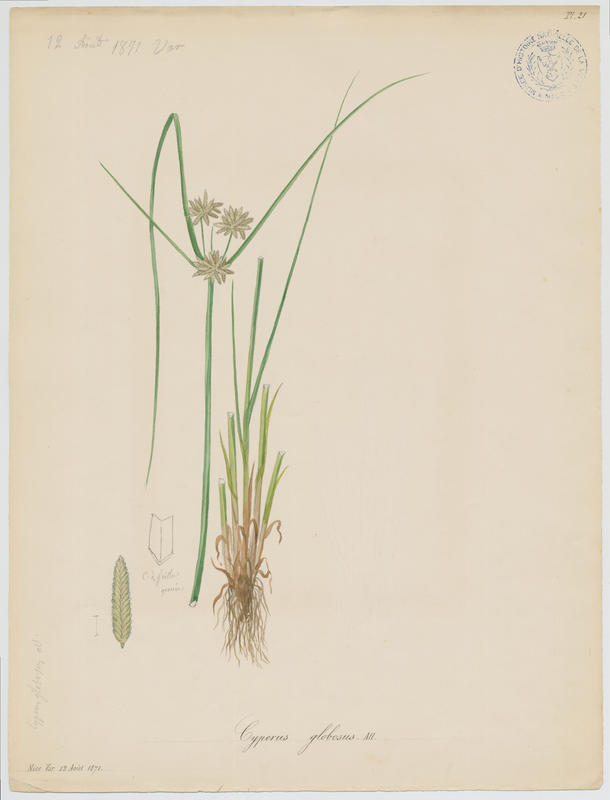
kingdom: Plantae
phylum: Tracheophyta
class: Liliopsida
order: Poales
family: Cyperaceae
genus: Cyperus
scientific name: Cyperus flavidus
